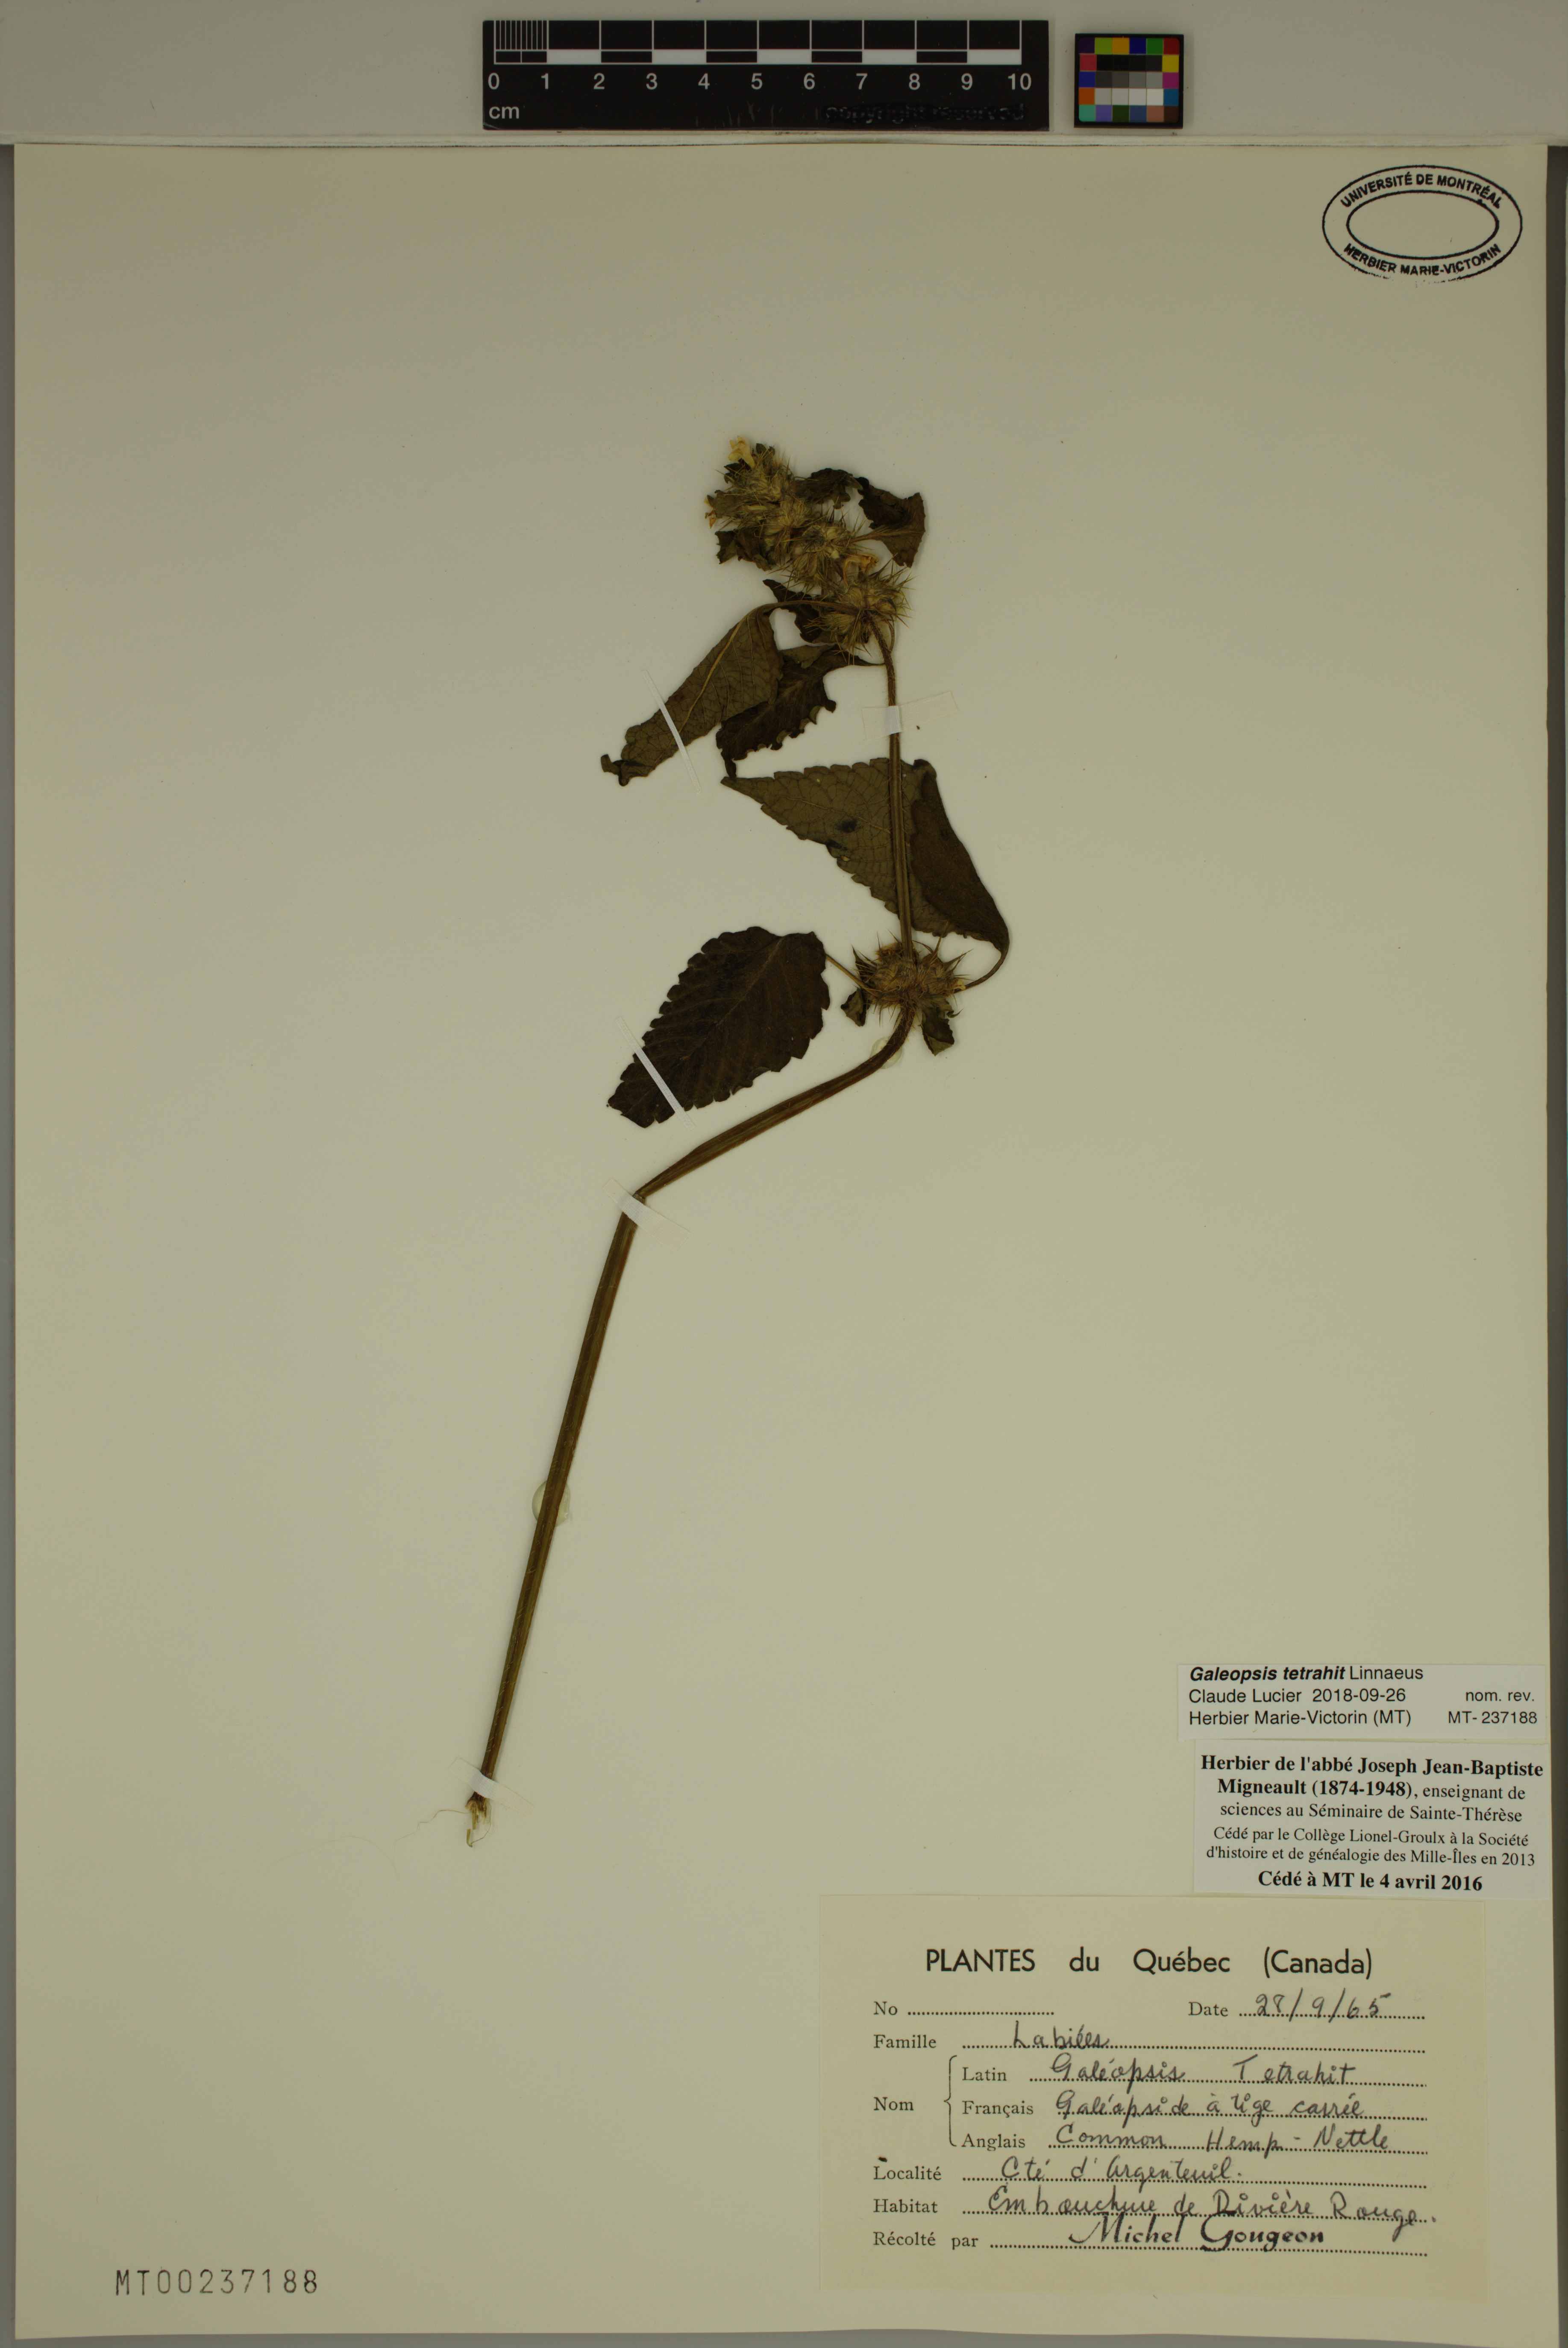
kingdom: Plantae
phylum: Tracheophyta
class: Magnoliopsida
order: Lamiales
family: Lamiaceae
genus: Galeopsis
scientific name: Galeopsis tetrahit
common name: Common hemp-nettle
